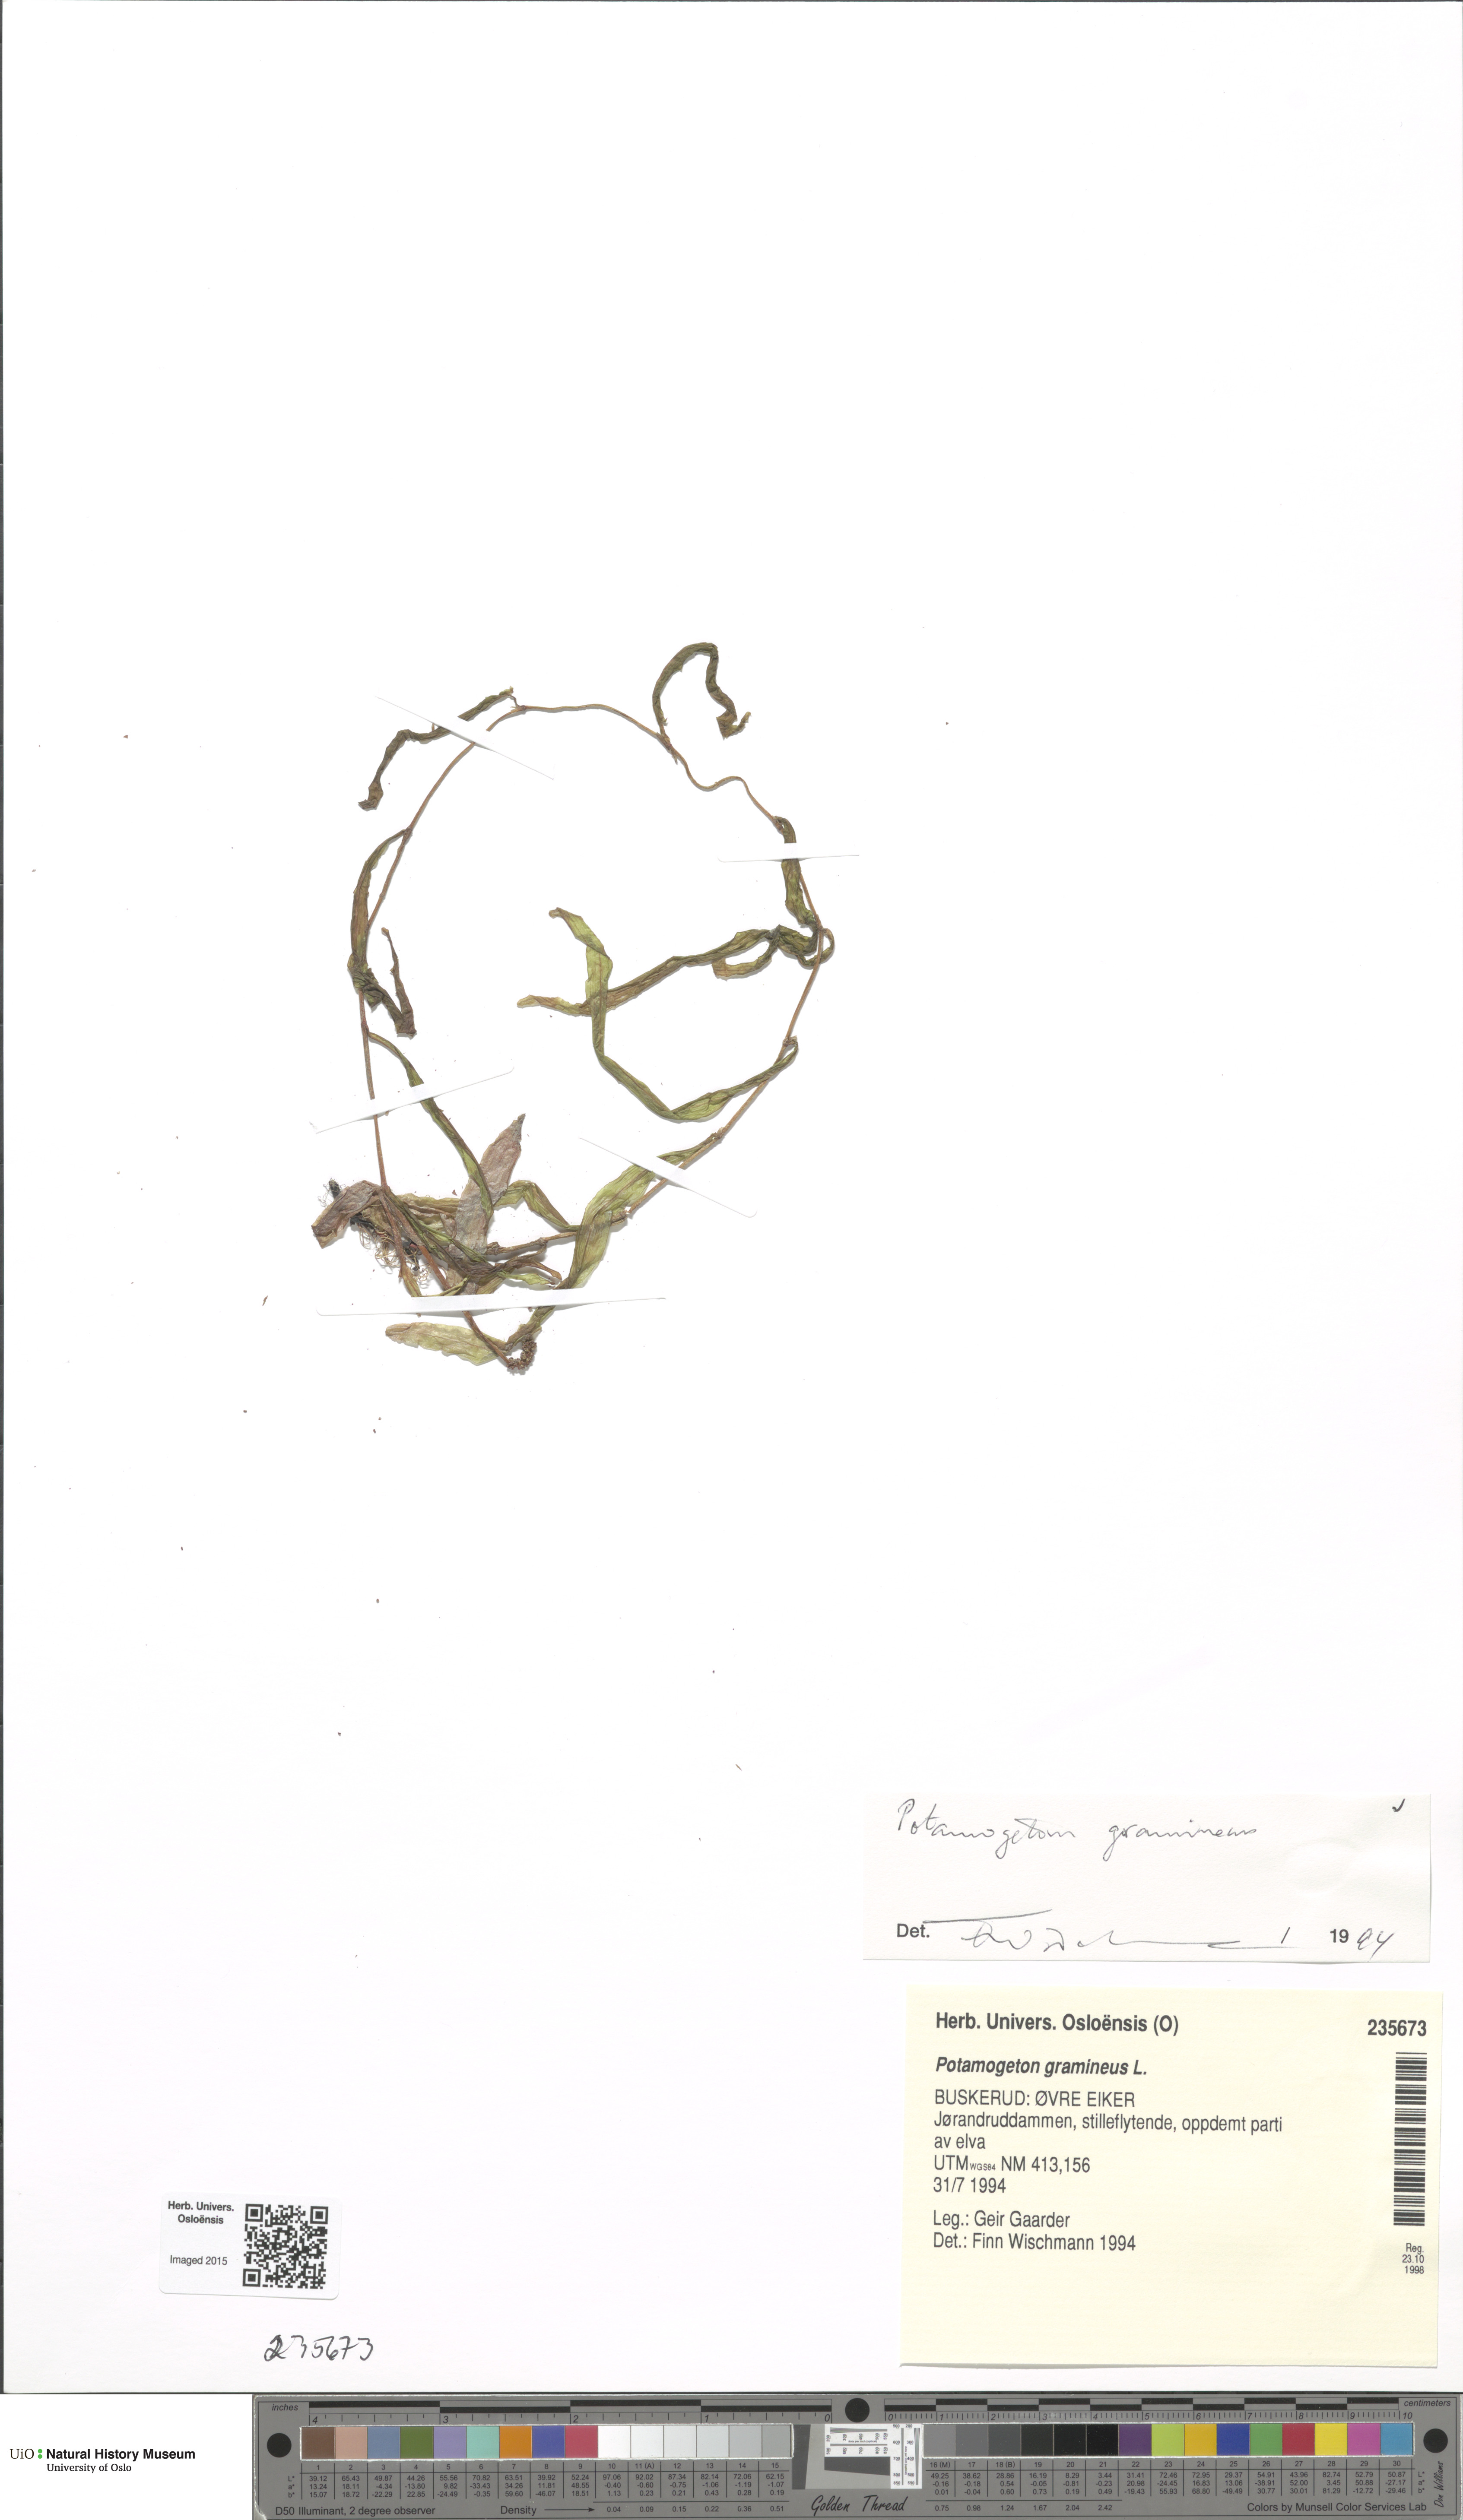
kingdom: Plantae
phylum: Tracheophyta
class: Liliopsida
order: Alismatales
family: Potamogetonaceae
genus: Potamogeton
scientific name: Potamogeton alpinus
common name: Red pondweed
